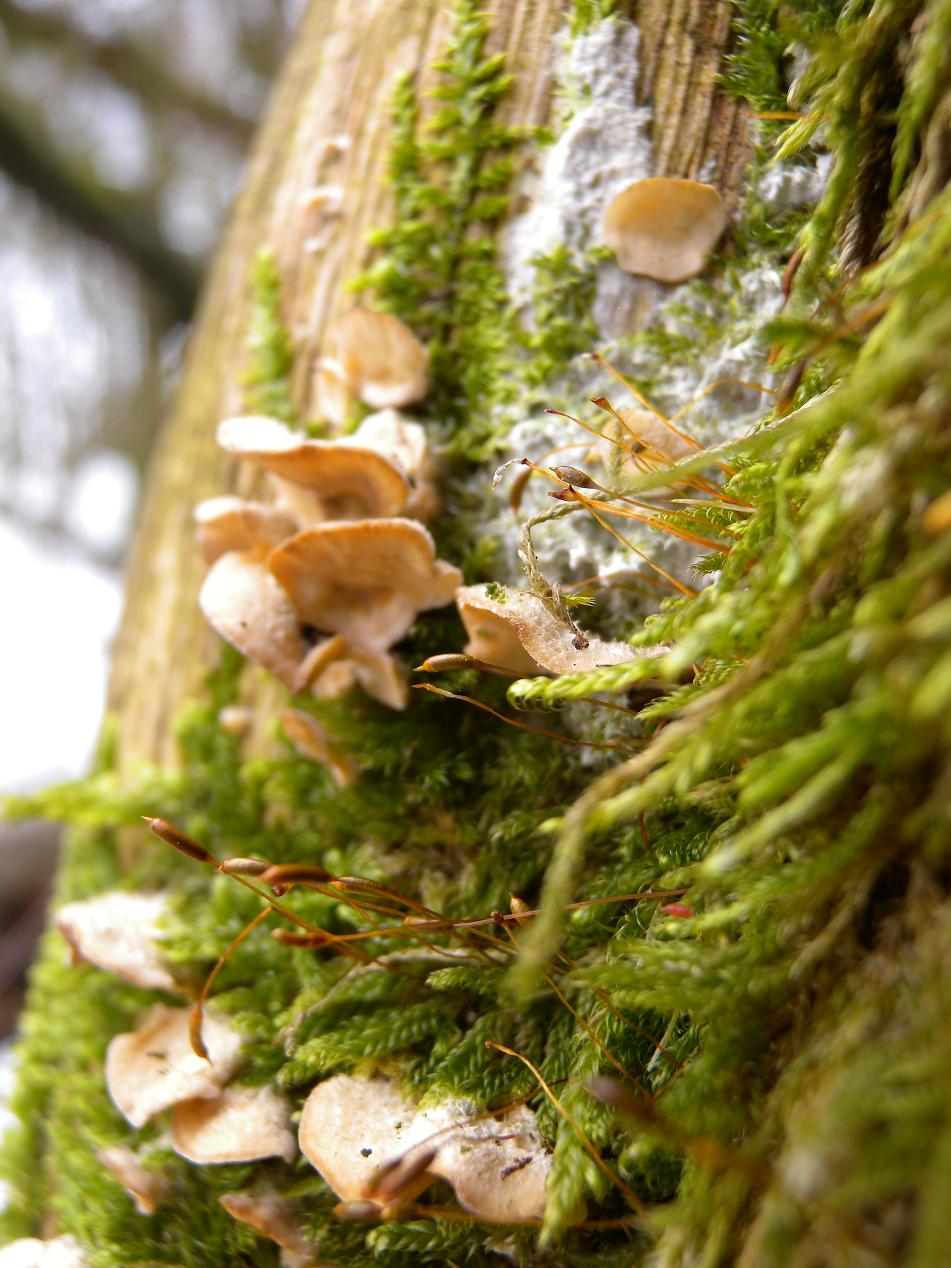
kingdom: Fungi
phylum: Basidiomycota
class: Agaricomycetes
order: Russulales
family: Stereaceae
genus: Stereum
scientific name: Stereum hirsutum
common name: håret lædersvamp
